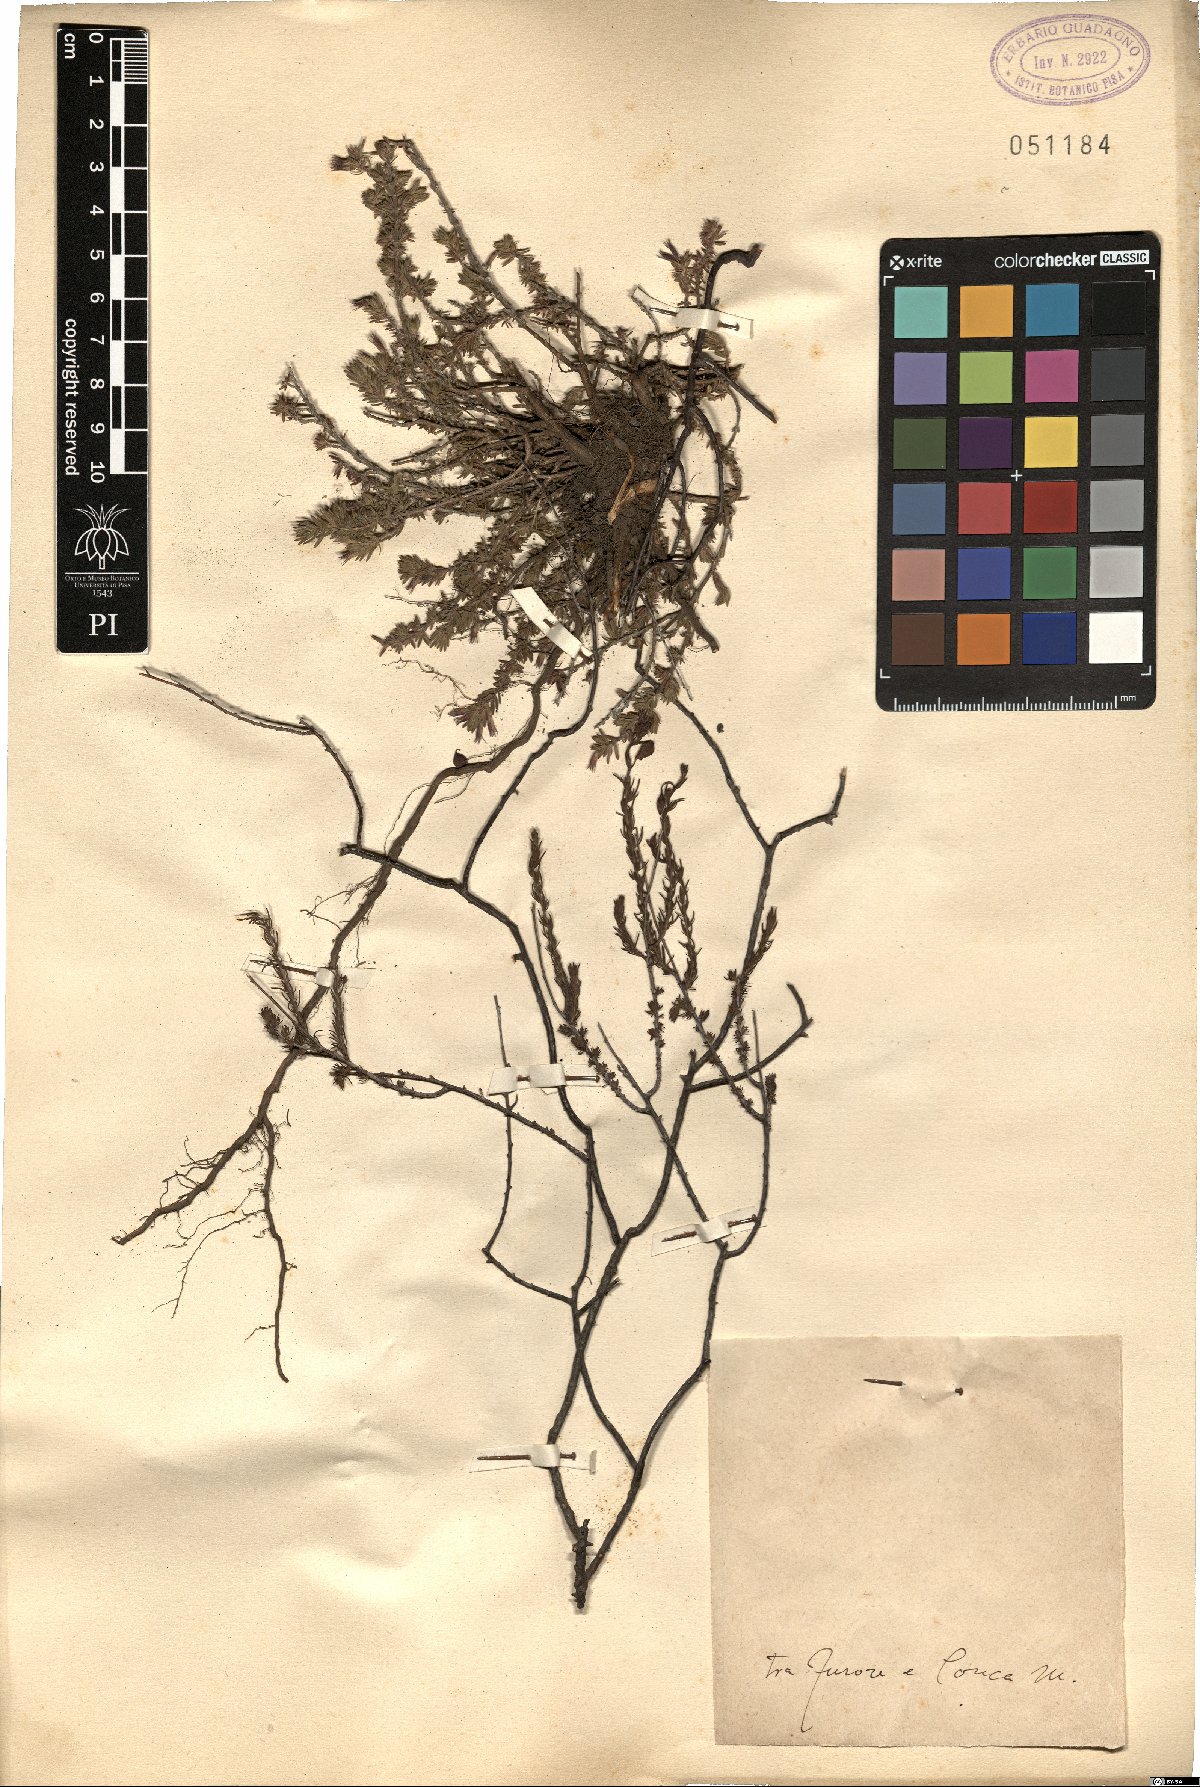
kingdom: Plantae
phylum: Tracheophyta
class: Magnoliopsida
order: Malvales
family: Cistaceae
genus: Helianthemum
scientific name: Helianthemum
